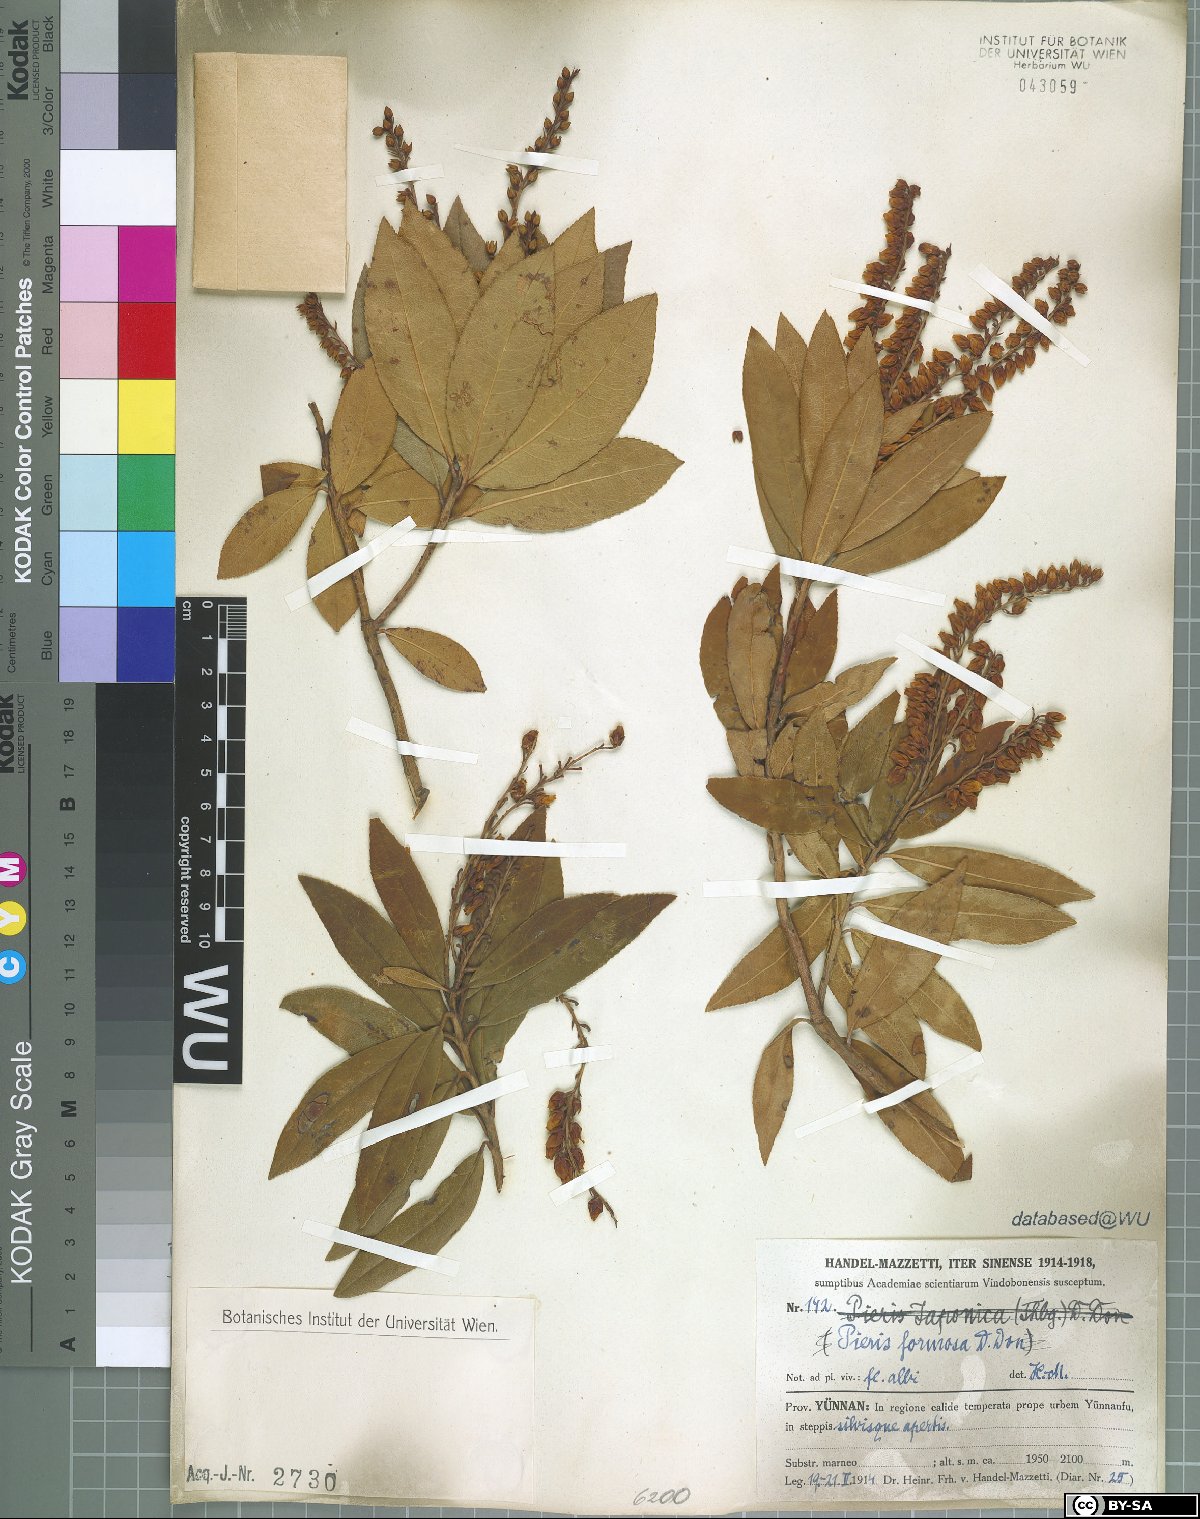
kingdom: Plantae
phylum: Tracheophyta
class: Magnoliopsida
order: Ericales
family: Ericaceae
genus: Pieris
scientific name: Pieris formosa
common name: Formosan pieris
